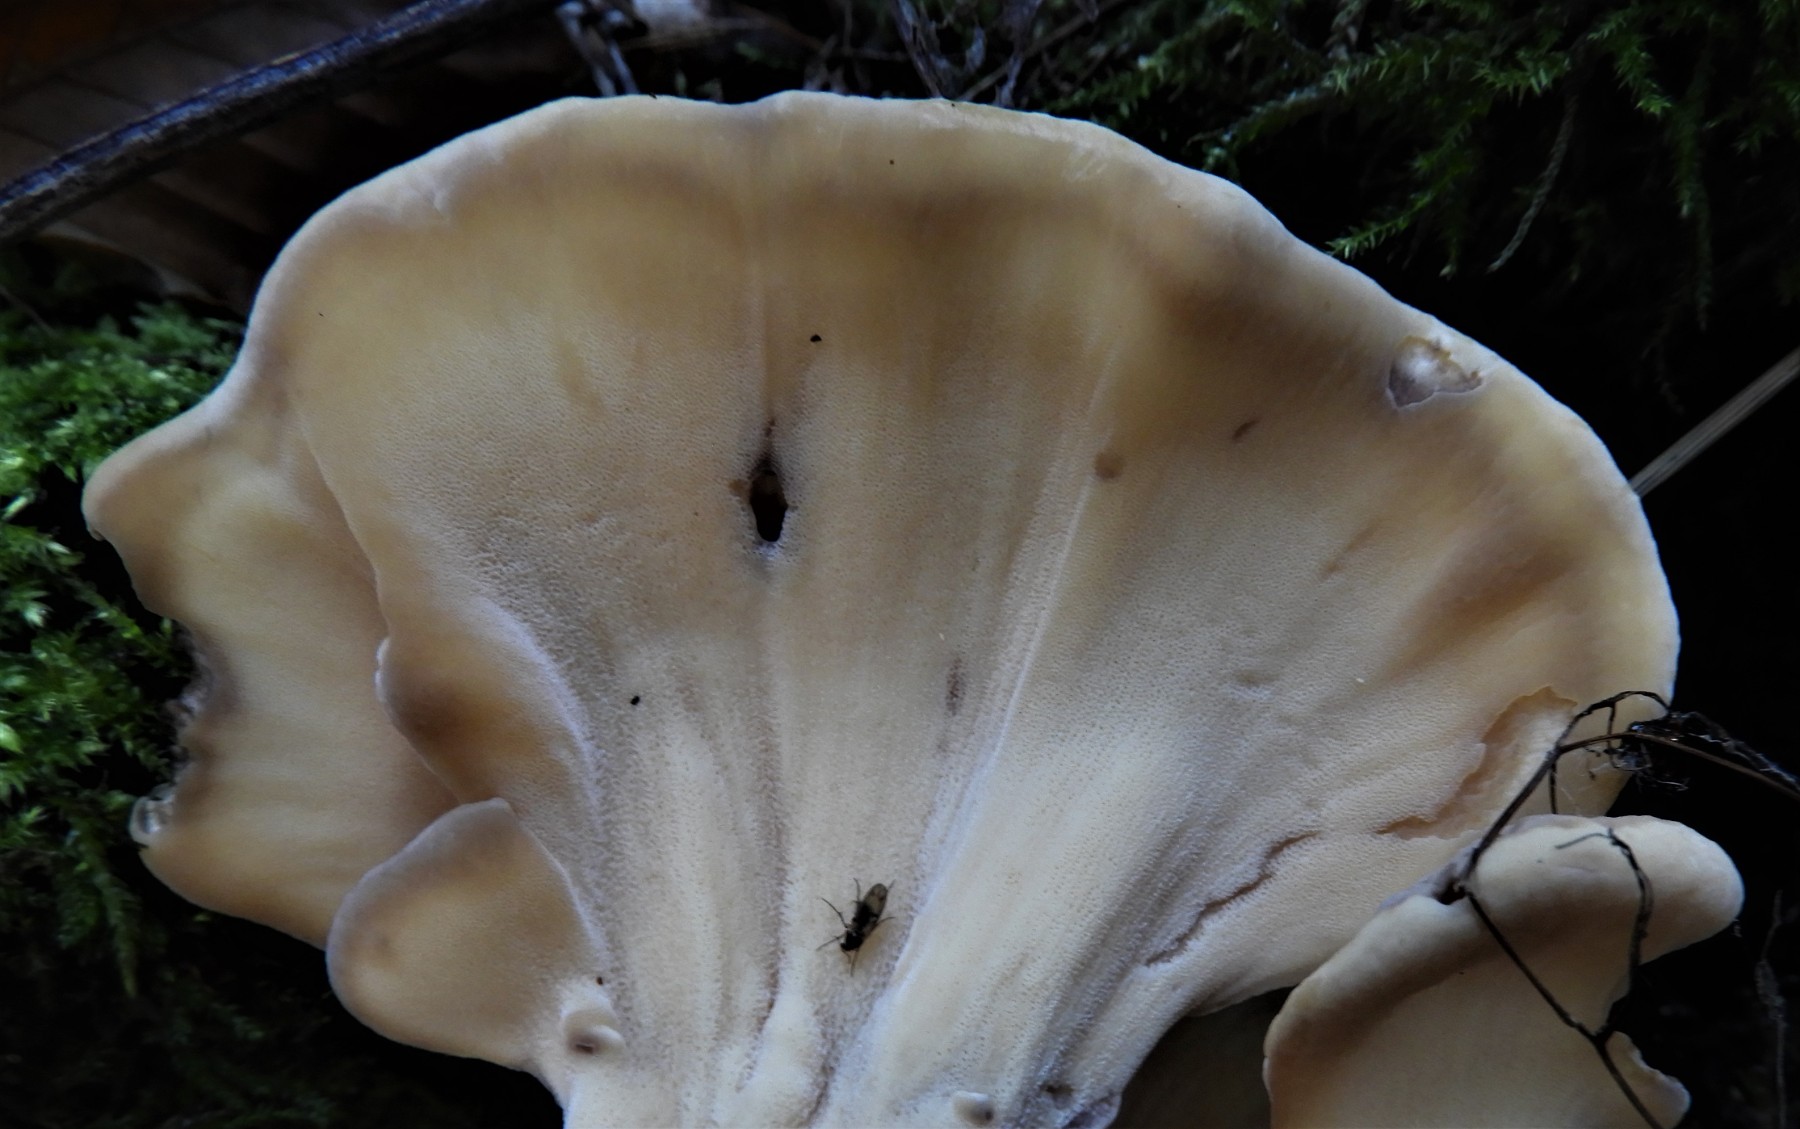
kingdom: Fungi
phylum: Basidiomycota
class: Agaricomycetes
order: Polyporales
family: Meripilaceae
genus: Meripilus
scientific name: Meripilus giganteus
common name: kæmpeporesvamp
